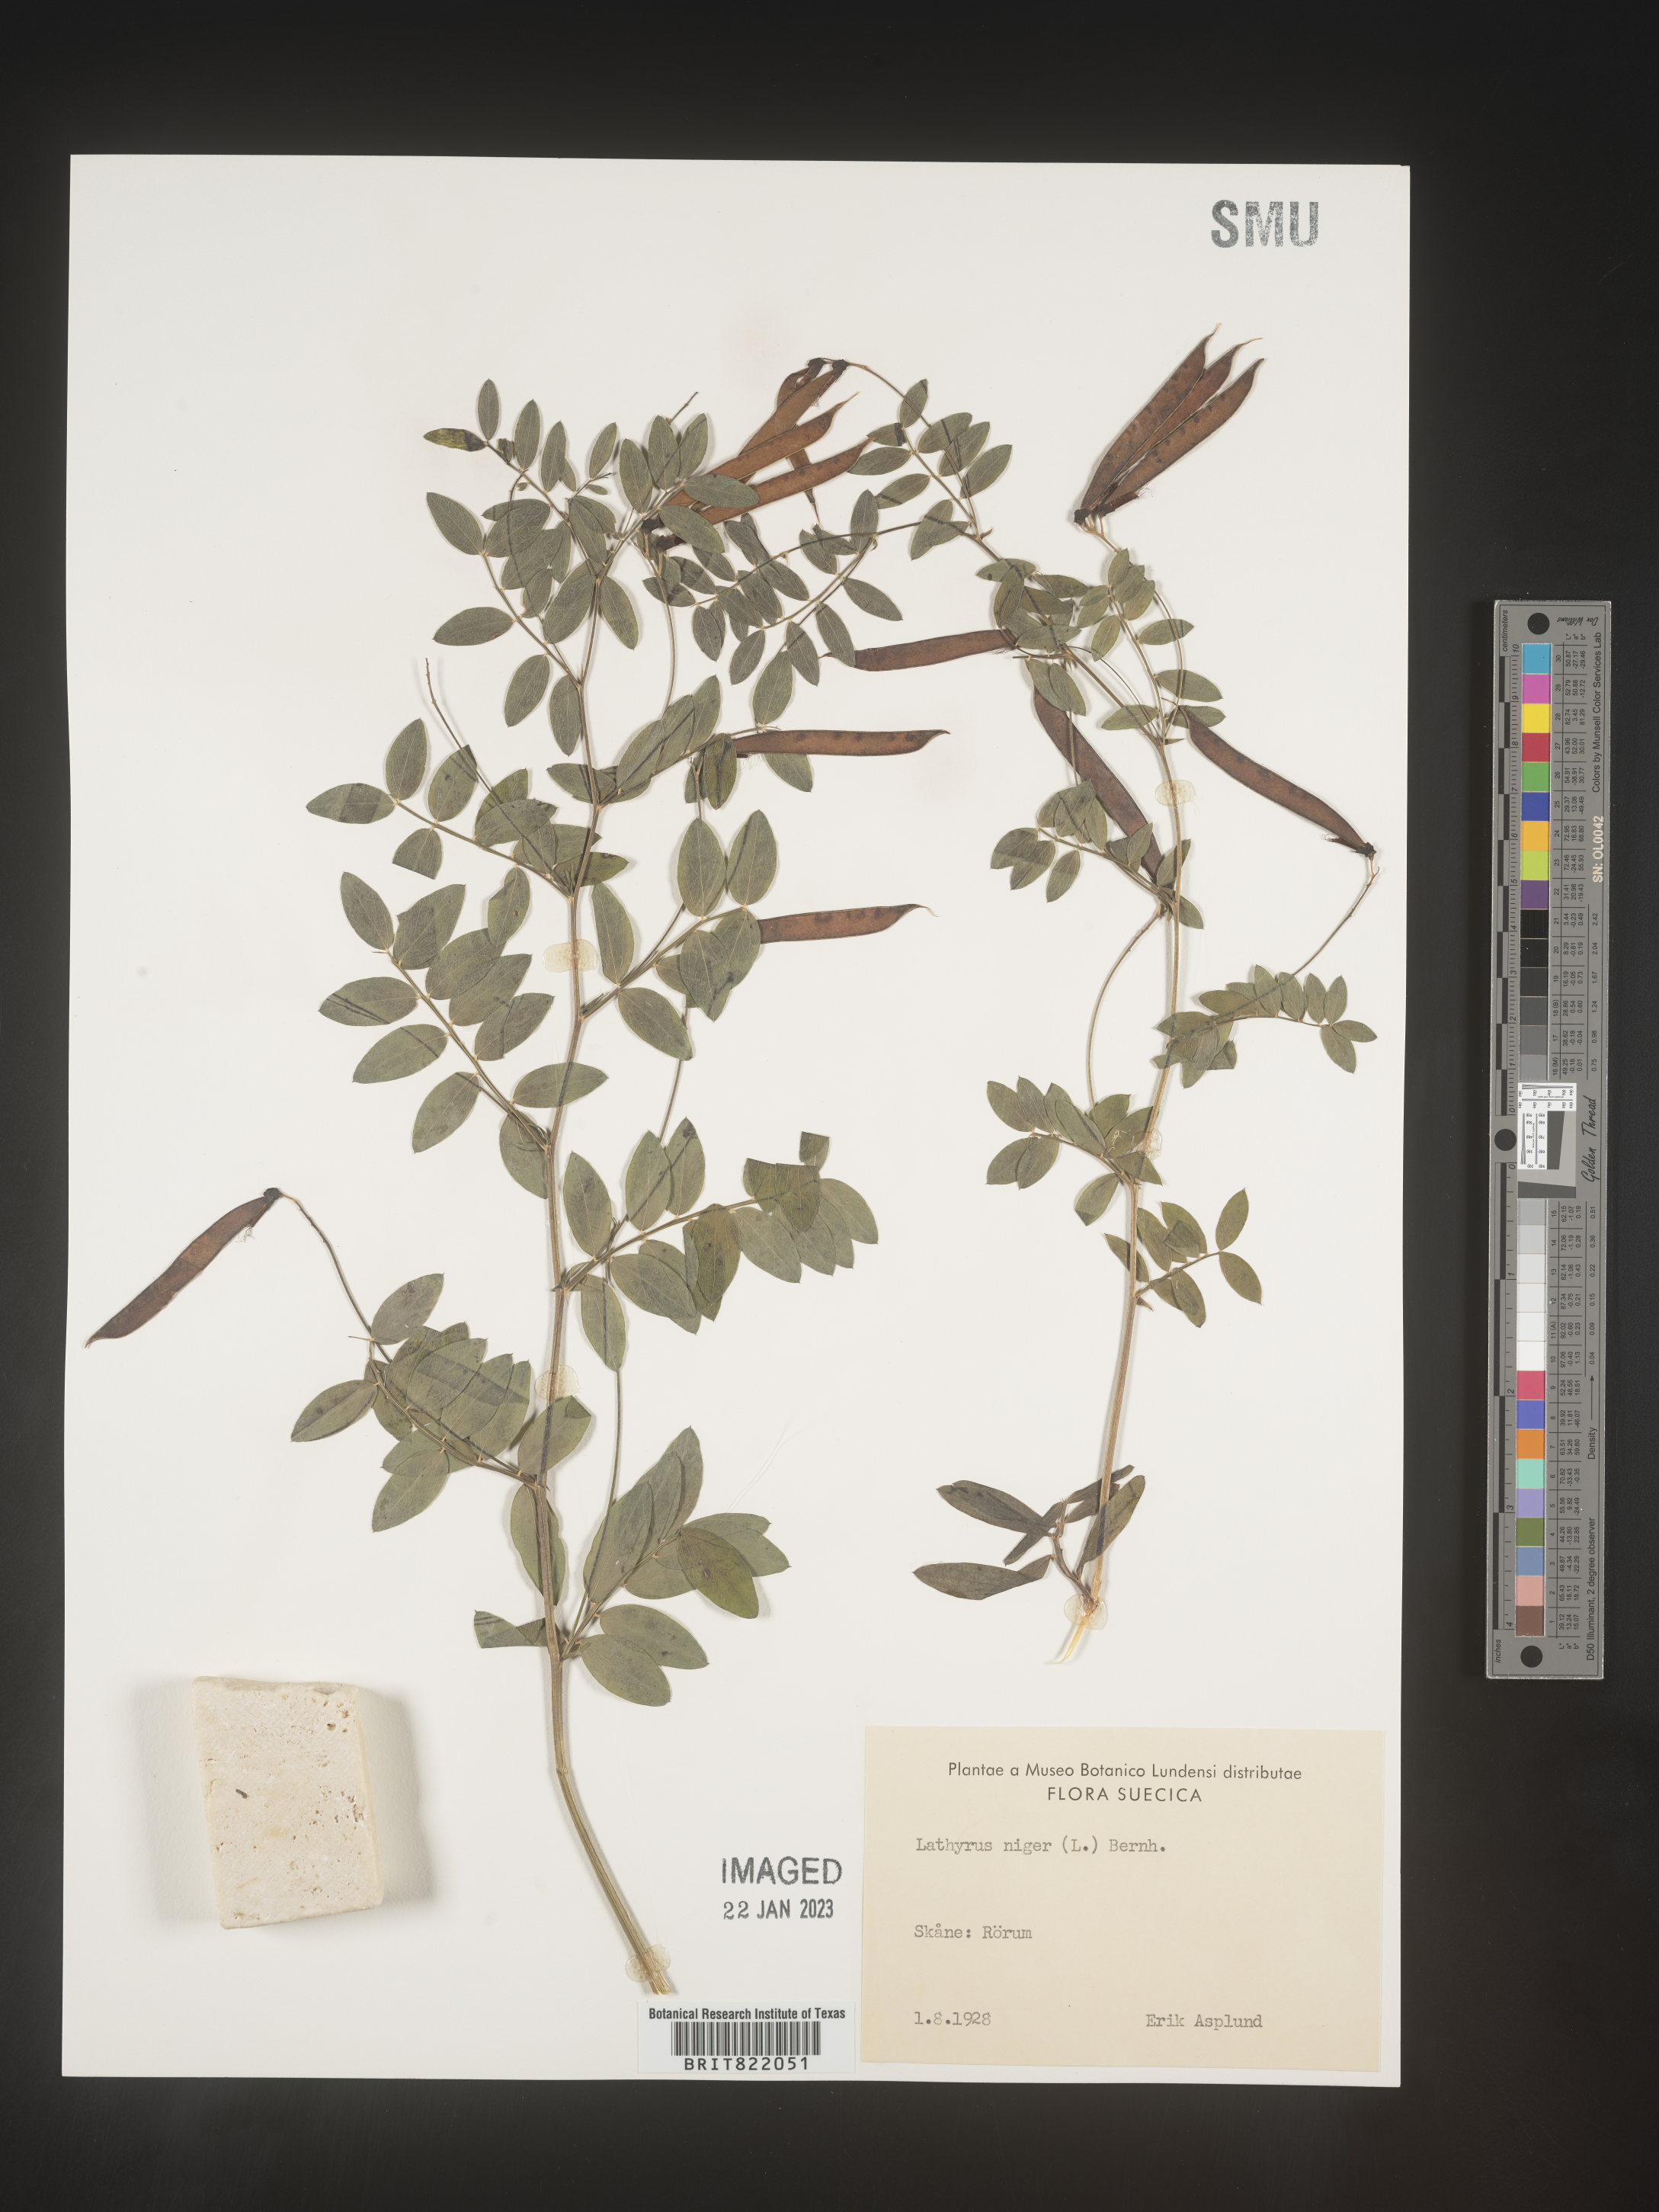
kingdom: Plantae
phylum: Tracheophyta
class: Magnoliopsida
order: Fabales
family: Fabaceae
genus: Lathyrus
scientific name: Lathyrus
